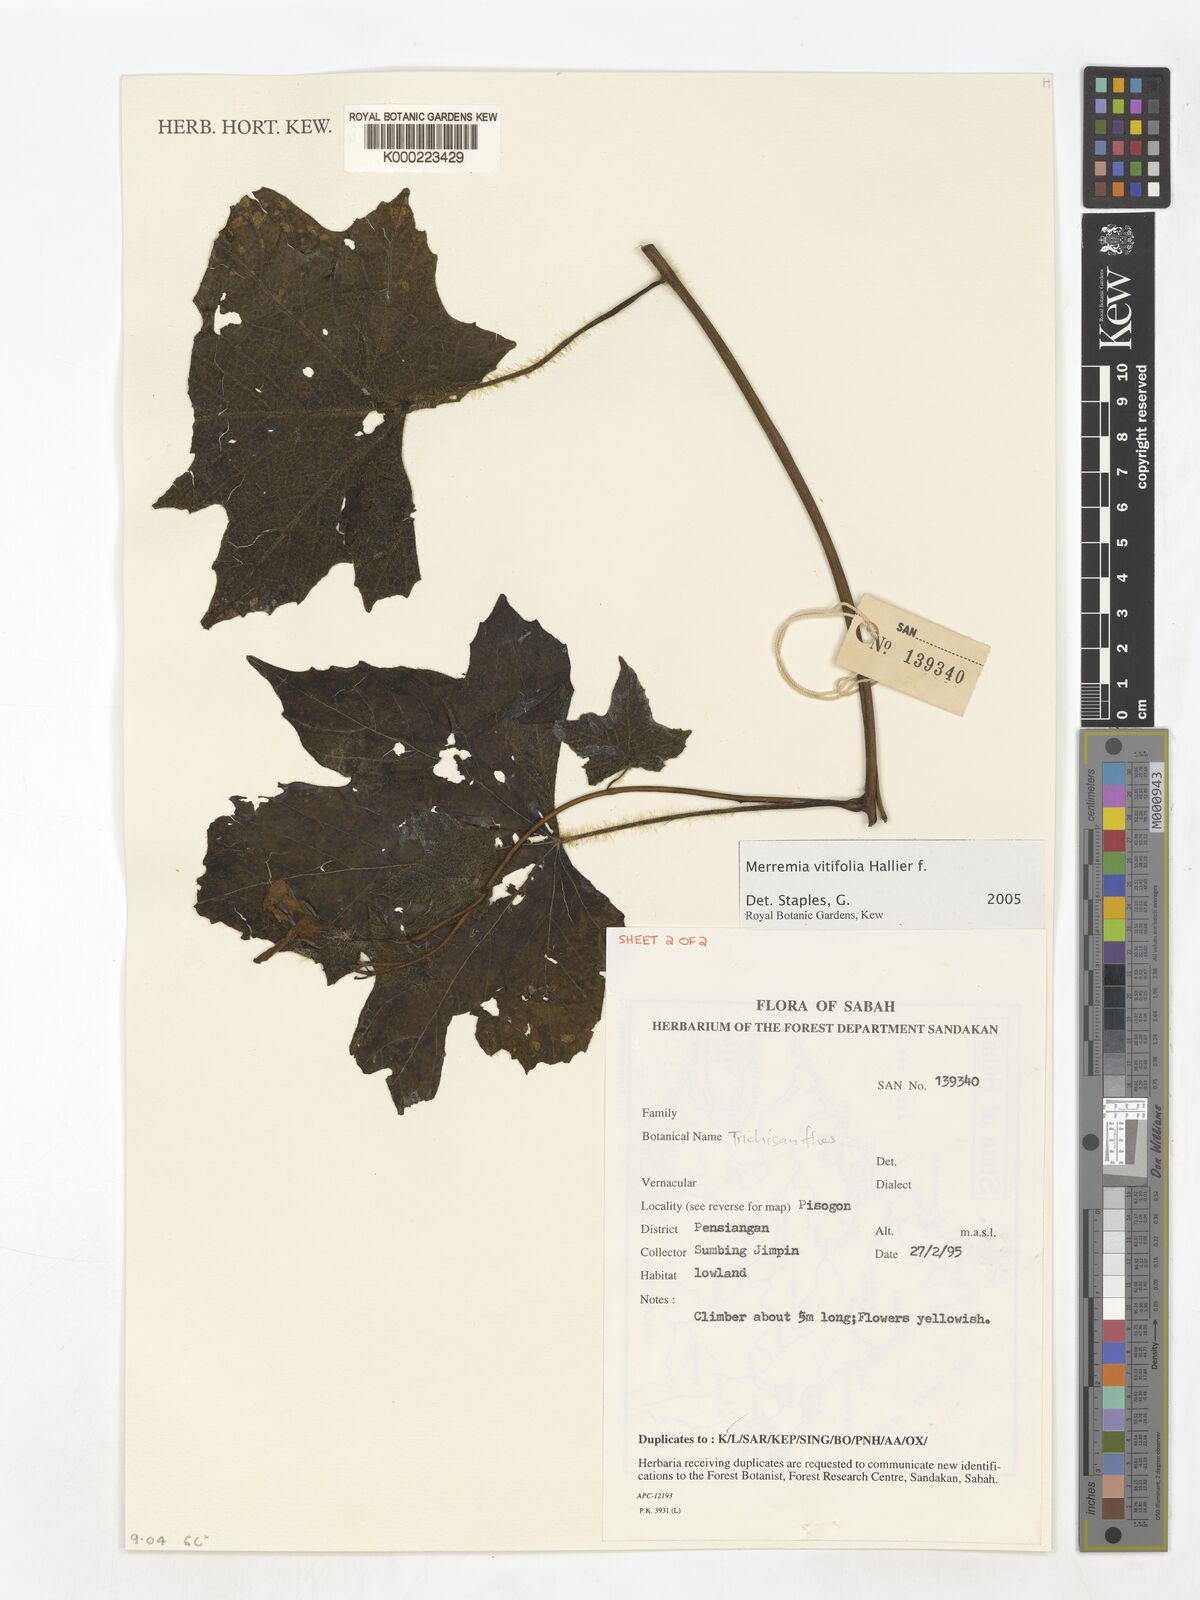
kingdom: Plantae
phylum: Tracheophyta
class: Magnoliopsida
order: Solanales
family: Convolvulaceae
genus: Camonea
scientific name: Camonea vitifolia
